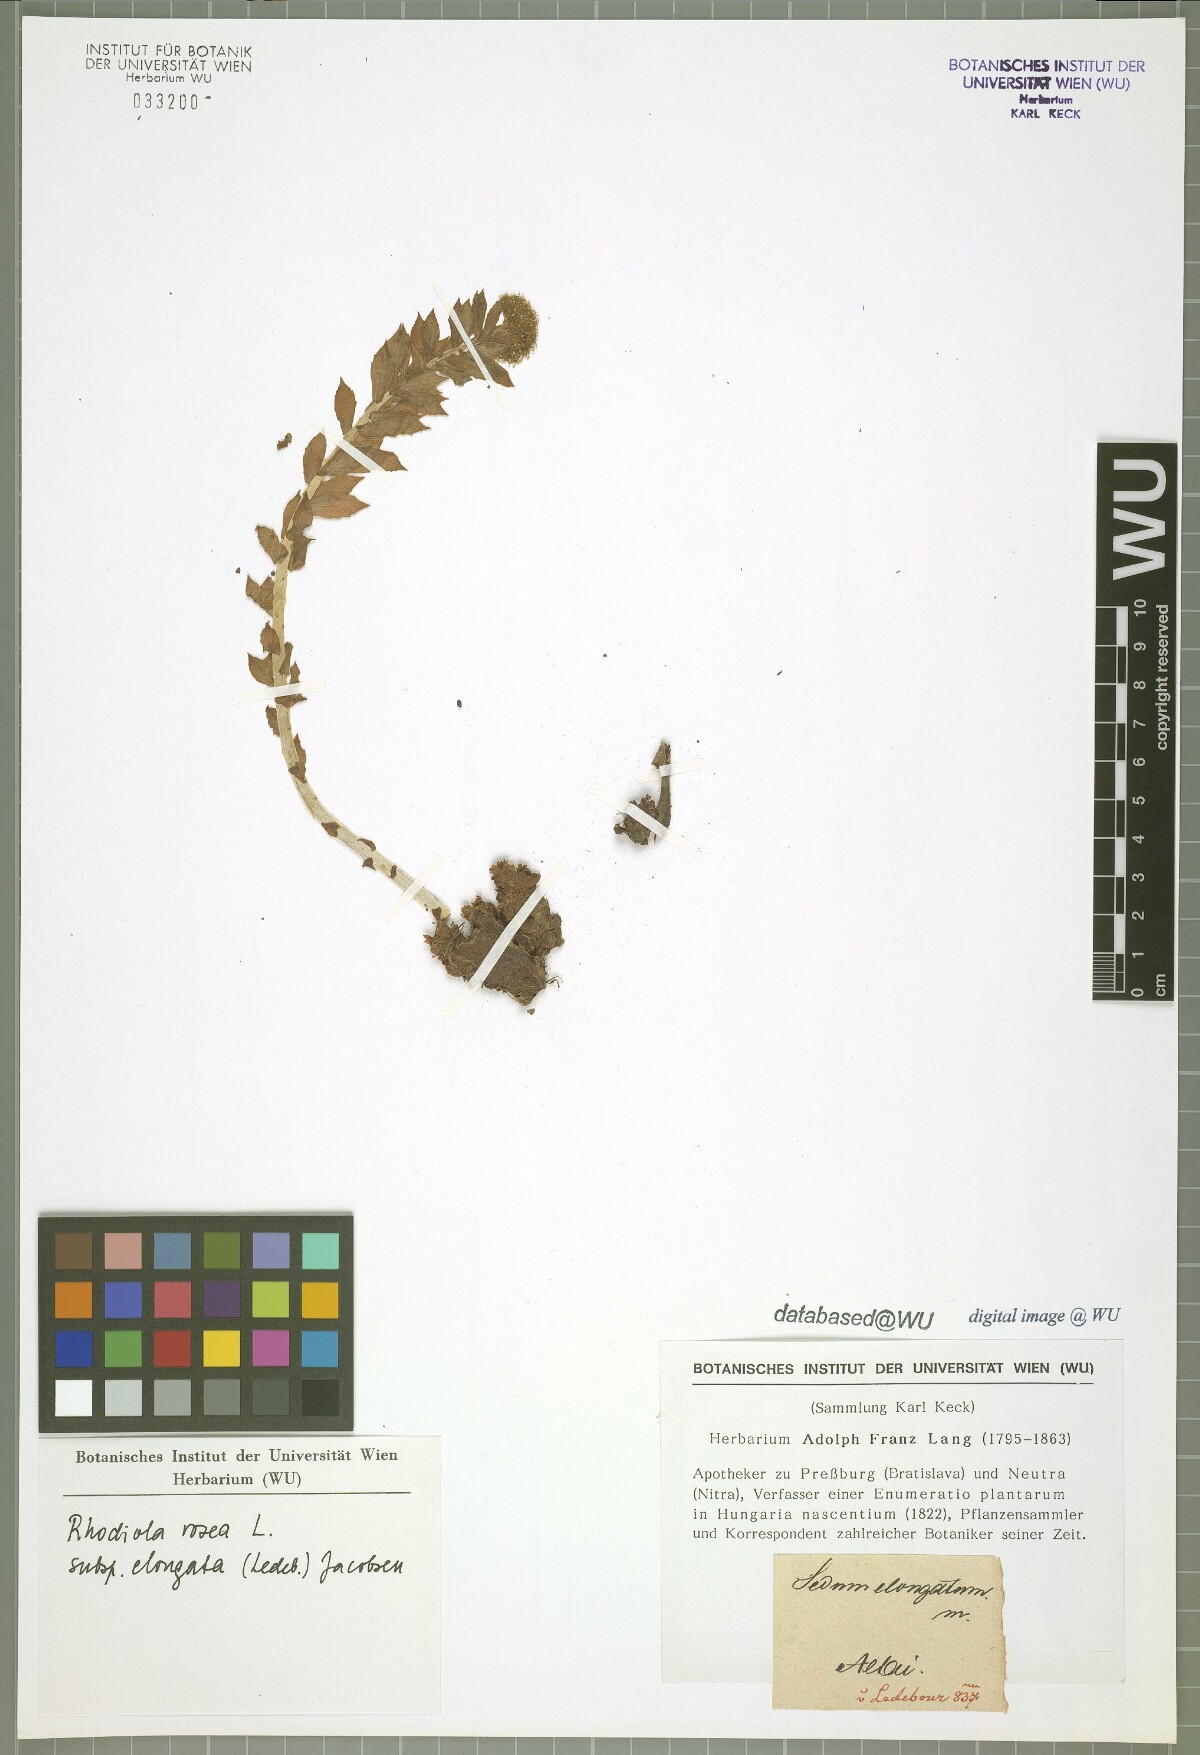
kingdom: Plantae
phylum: Tracheophyta
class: Magnoliopsida
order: Saxifragales
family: Crassulaceae
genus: Rhodiola
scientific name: Rhodiola rosea
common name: Roseroot
